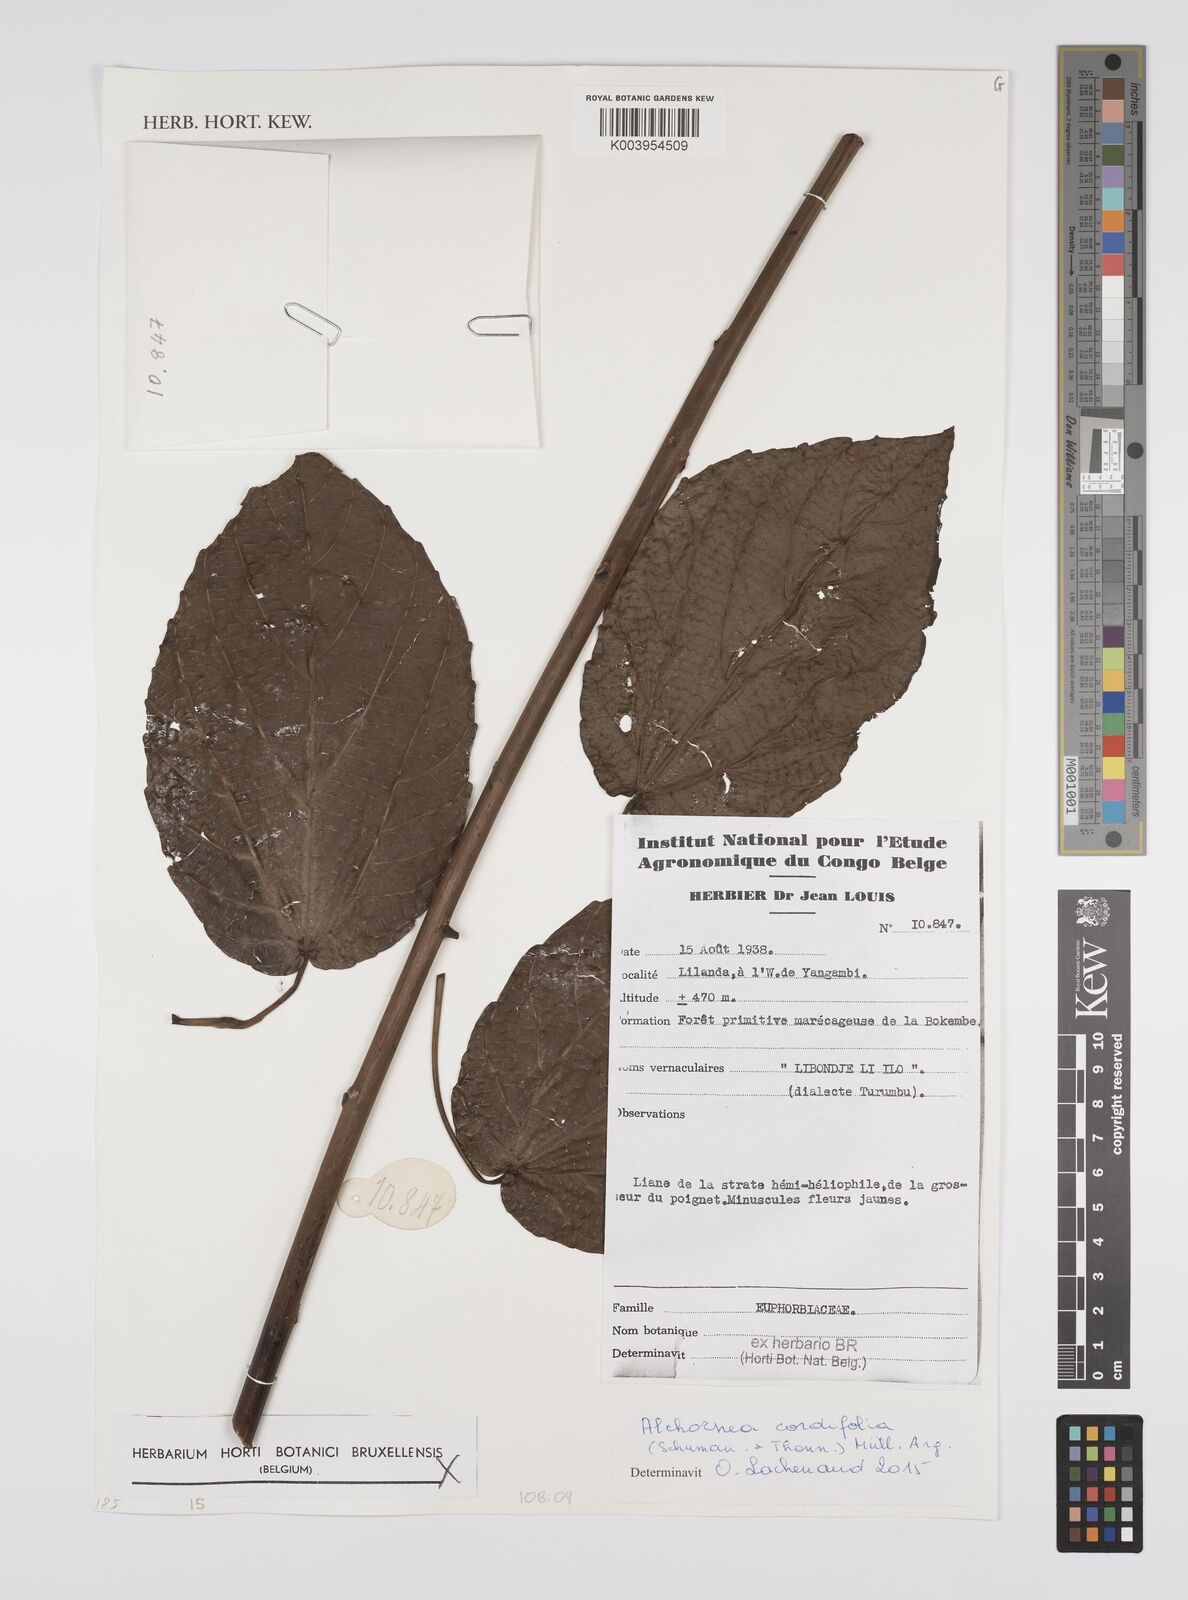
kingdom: Plantae
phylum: Tracheophyta
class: Magnoliopsida
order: Malpighiales
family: Euphorbiaceae
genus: Alchornea
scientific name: Alchornea cordifolia
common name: Christmasbush
